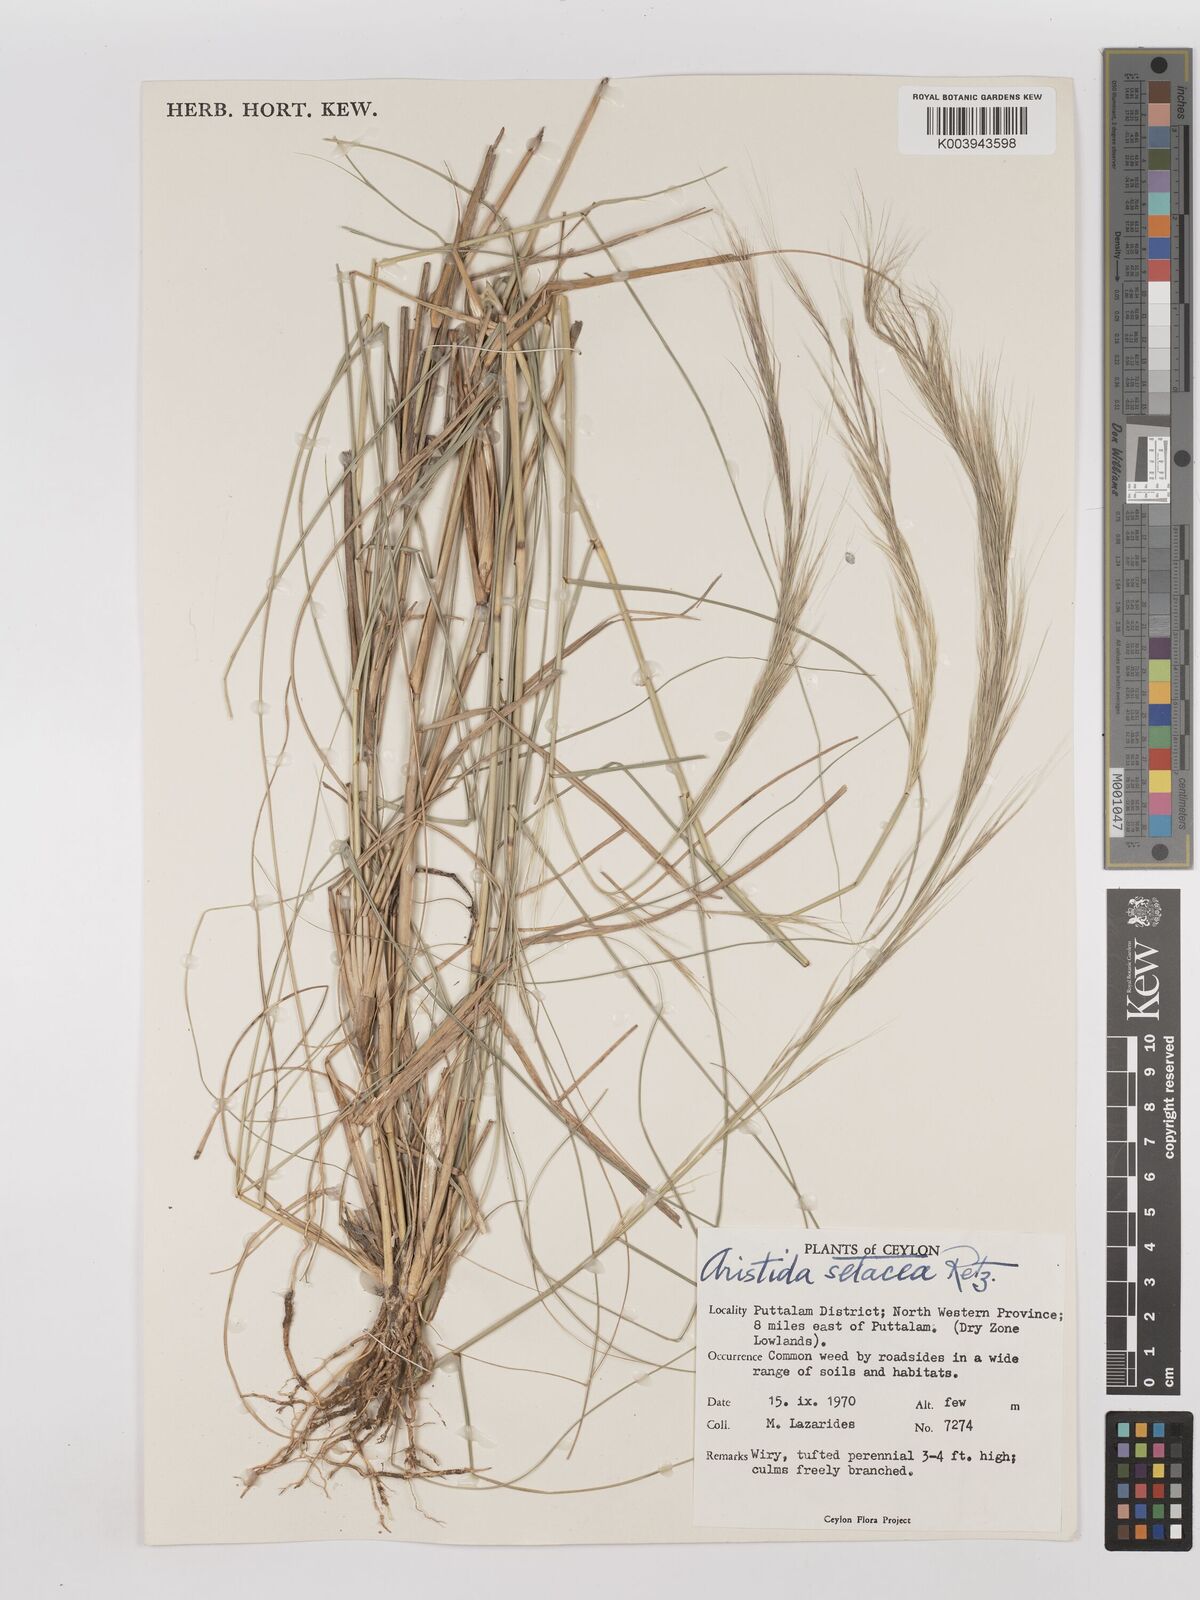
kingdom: Plantae
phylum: Tracheophyta
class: Liliopsida
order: Poales
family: Poaceae
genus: Aristida
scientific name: Aristida setacea
